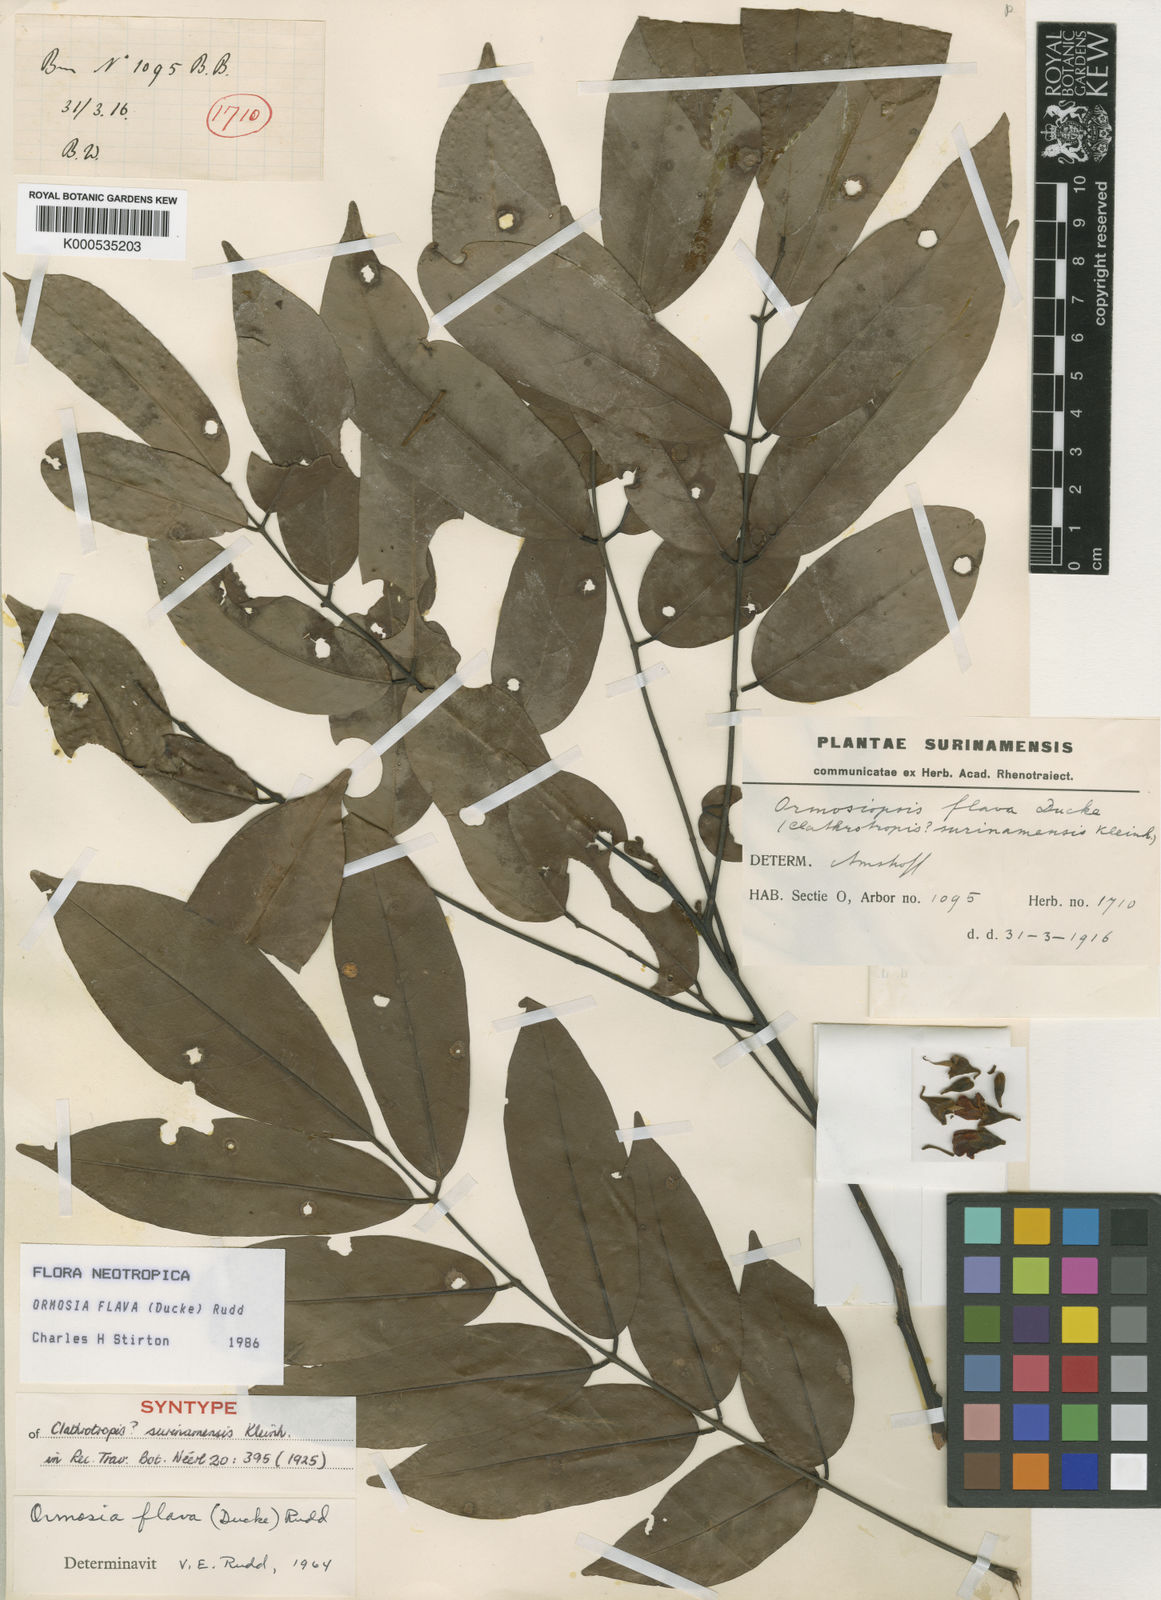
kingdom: Plantae
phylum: Tracheophyta
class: Magnoliopsida
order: Fabales
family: Fabaceae
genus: Ormosia
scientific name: Ormosia flava
